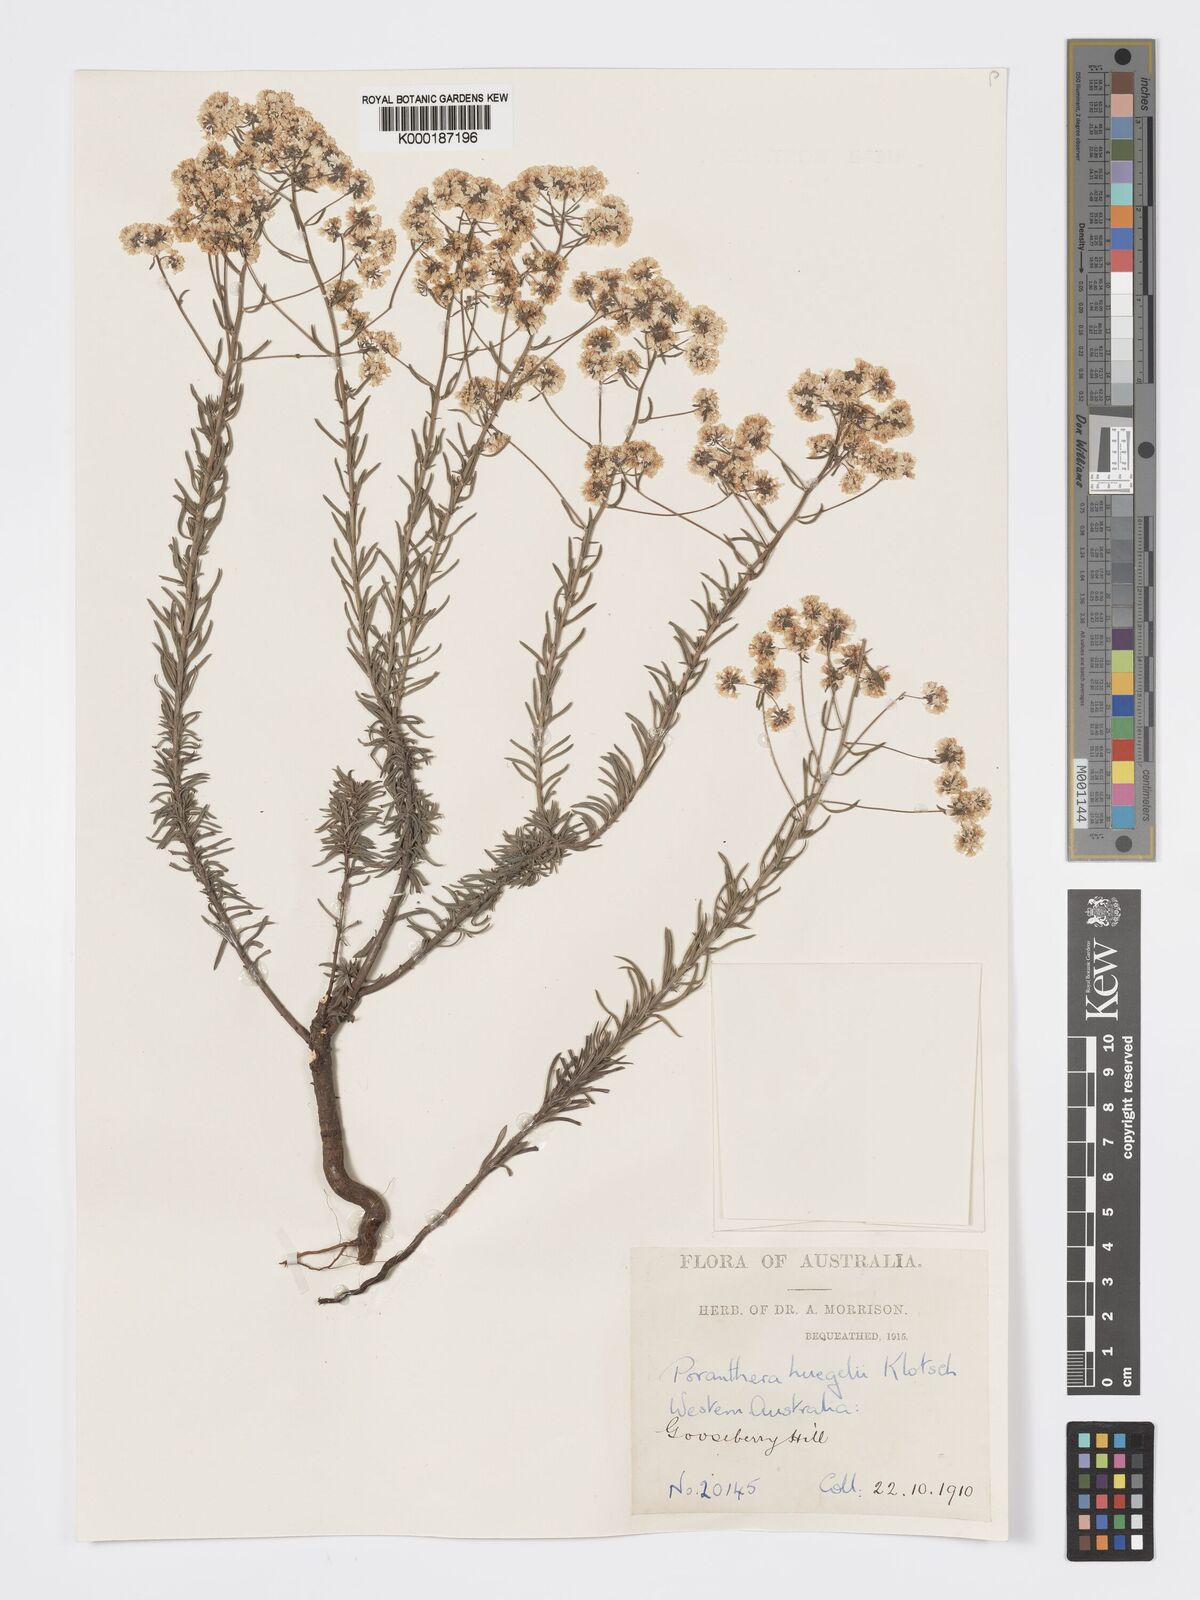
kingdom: Plantae
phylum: Tracheophyta
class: Magnoliopsida
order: Malpighiales
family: Phyllanthaceae
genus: Poranthera
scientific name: Poranthera huegelii
